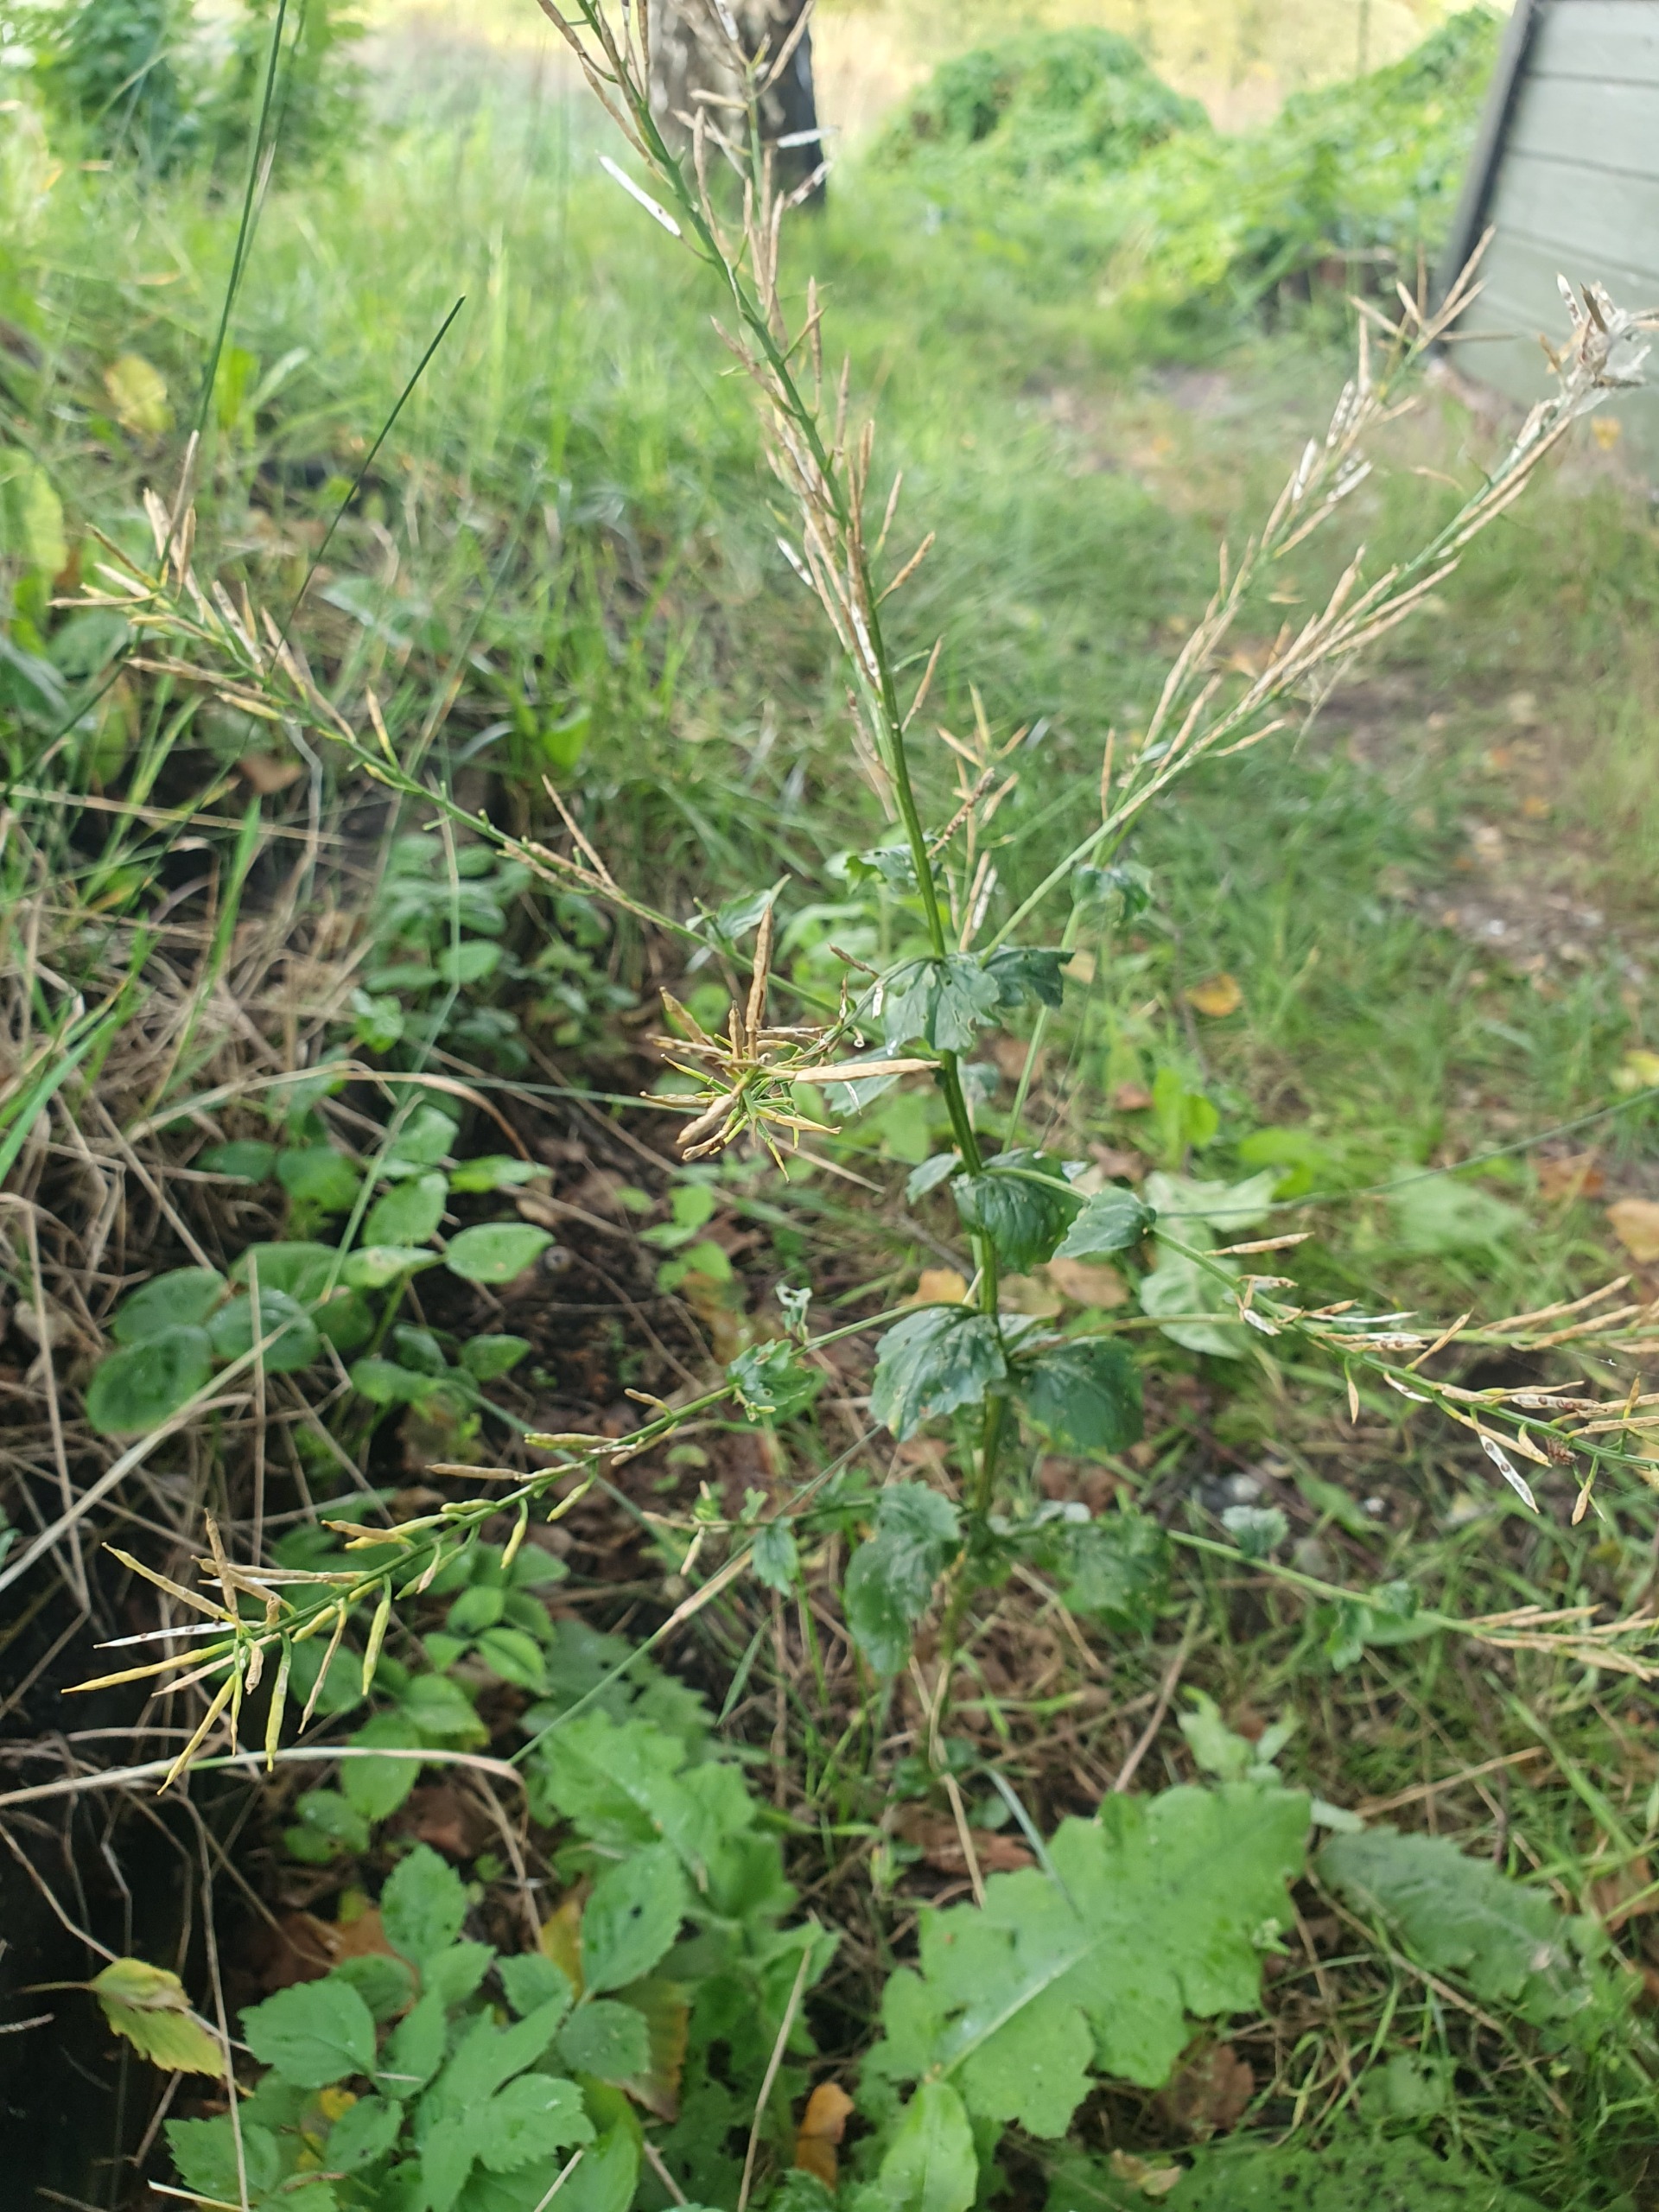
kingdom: Plantae
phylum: Tracheophyta
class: Magnoliopsida
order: Brassicales
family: Brassicaceae
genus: Barbarea
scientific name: Barbarea vulgaris
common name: Udspærret vinterkarse
